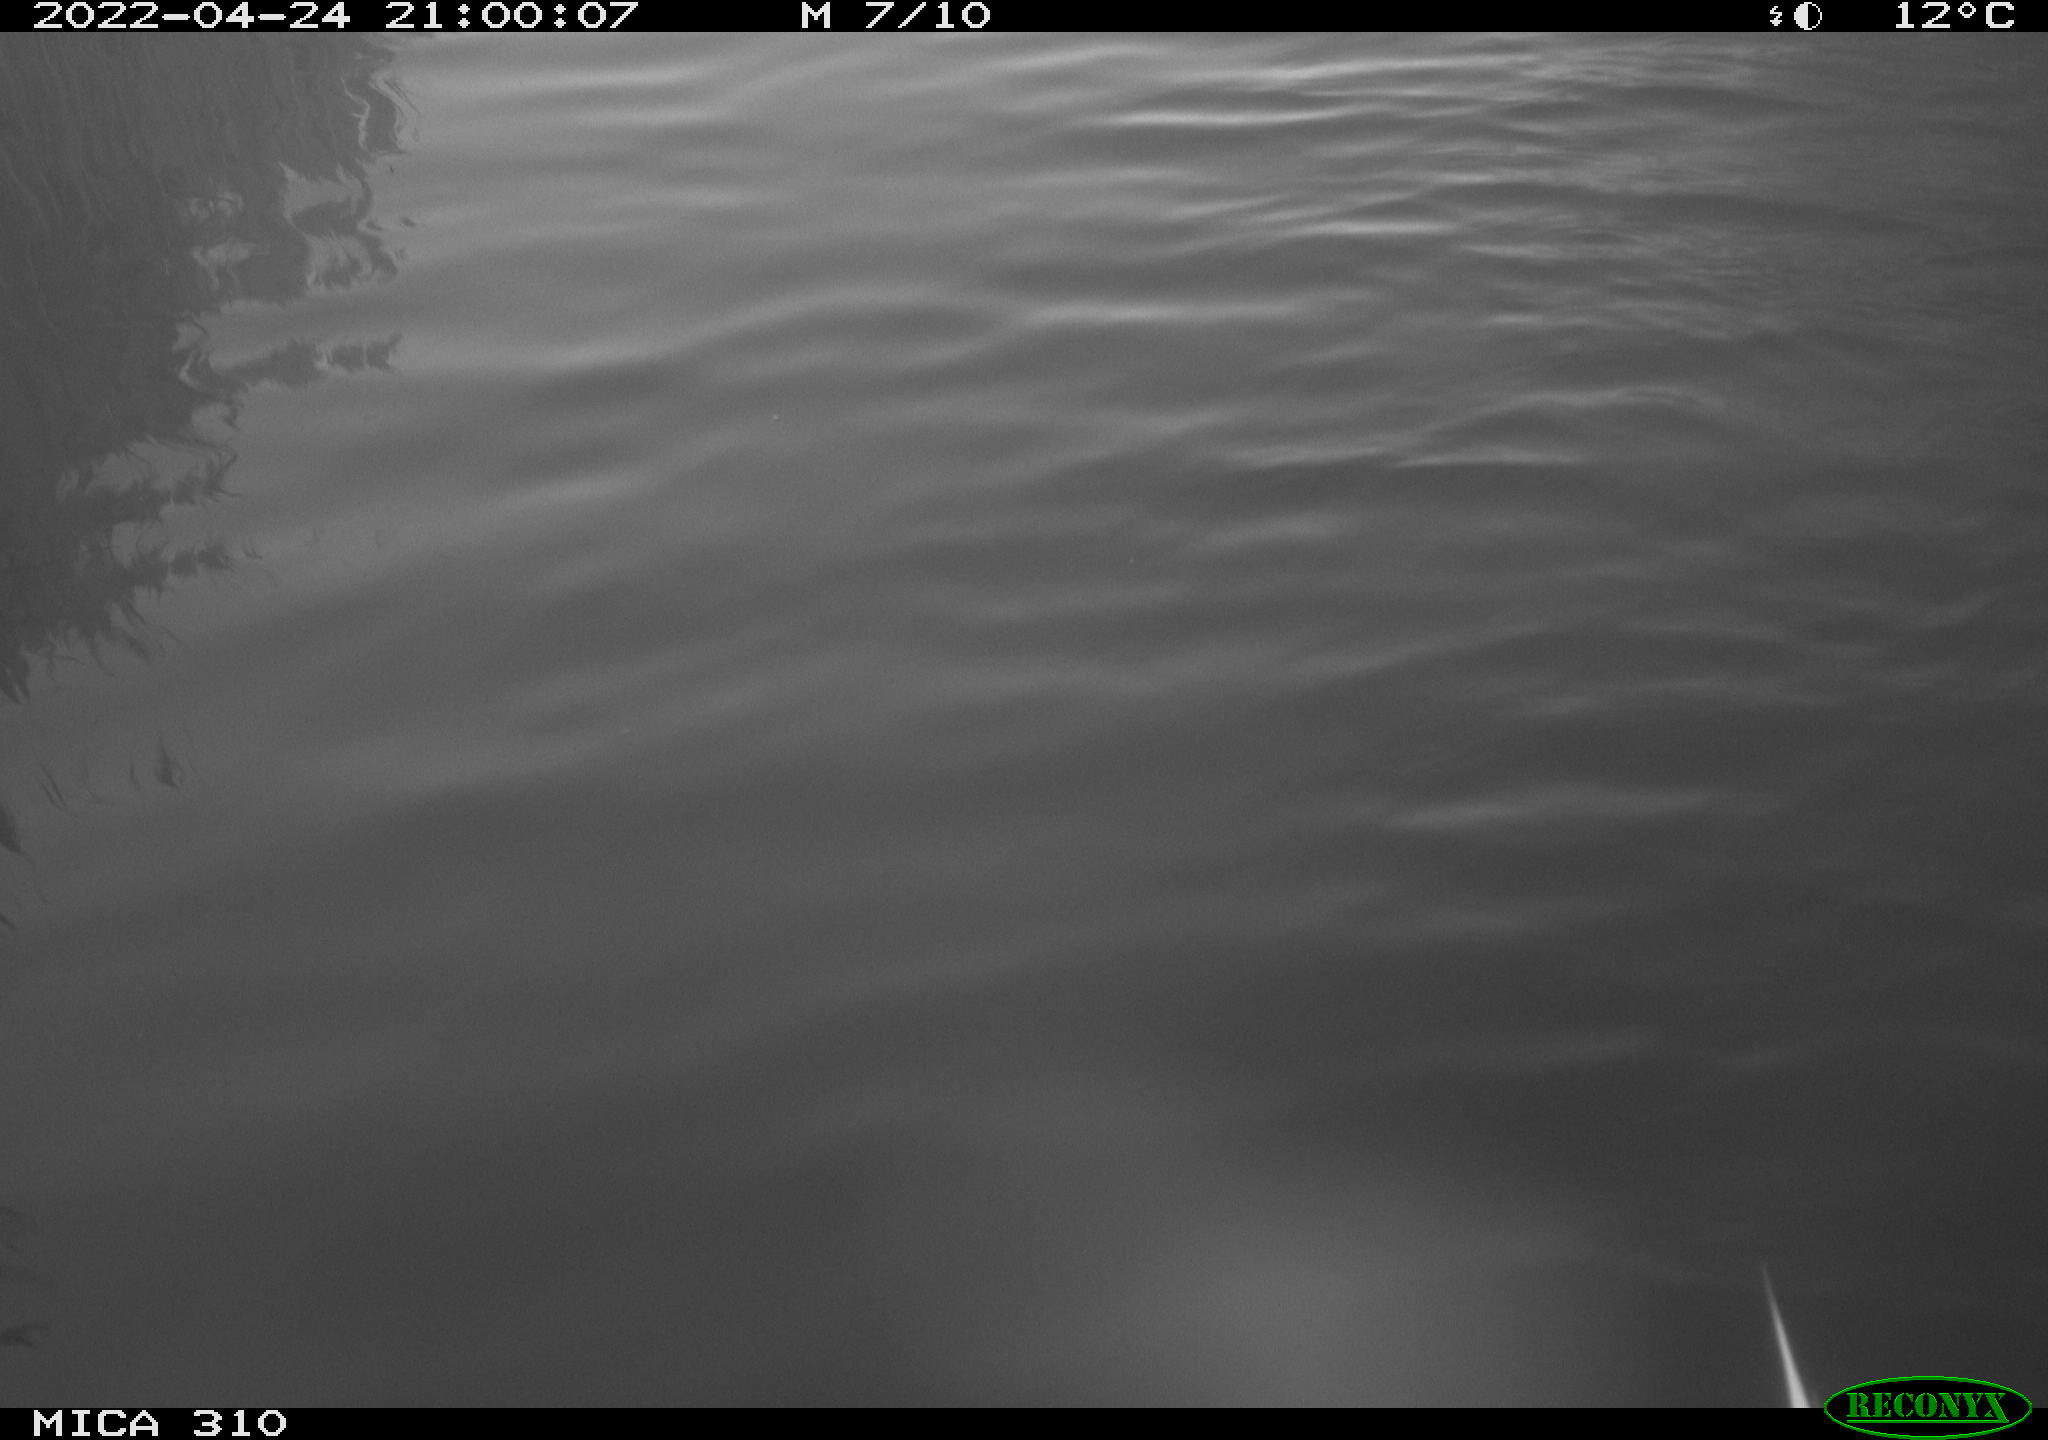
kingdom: Animalia
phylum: Chordata
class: Aves
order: Gruiformes
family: Rallidae
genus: Gallinula
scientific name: Gallinula chloropus
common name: Common moorhen
